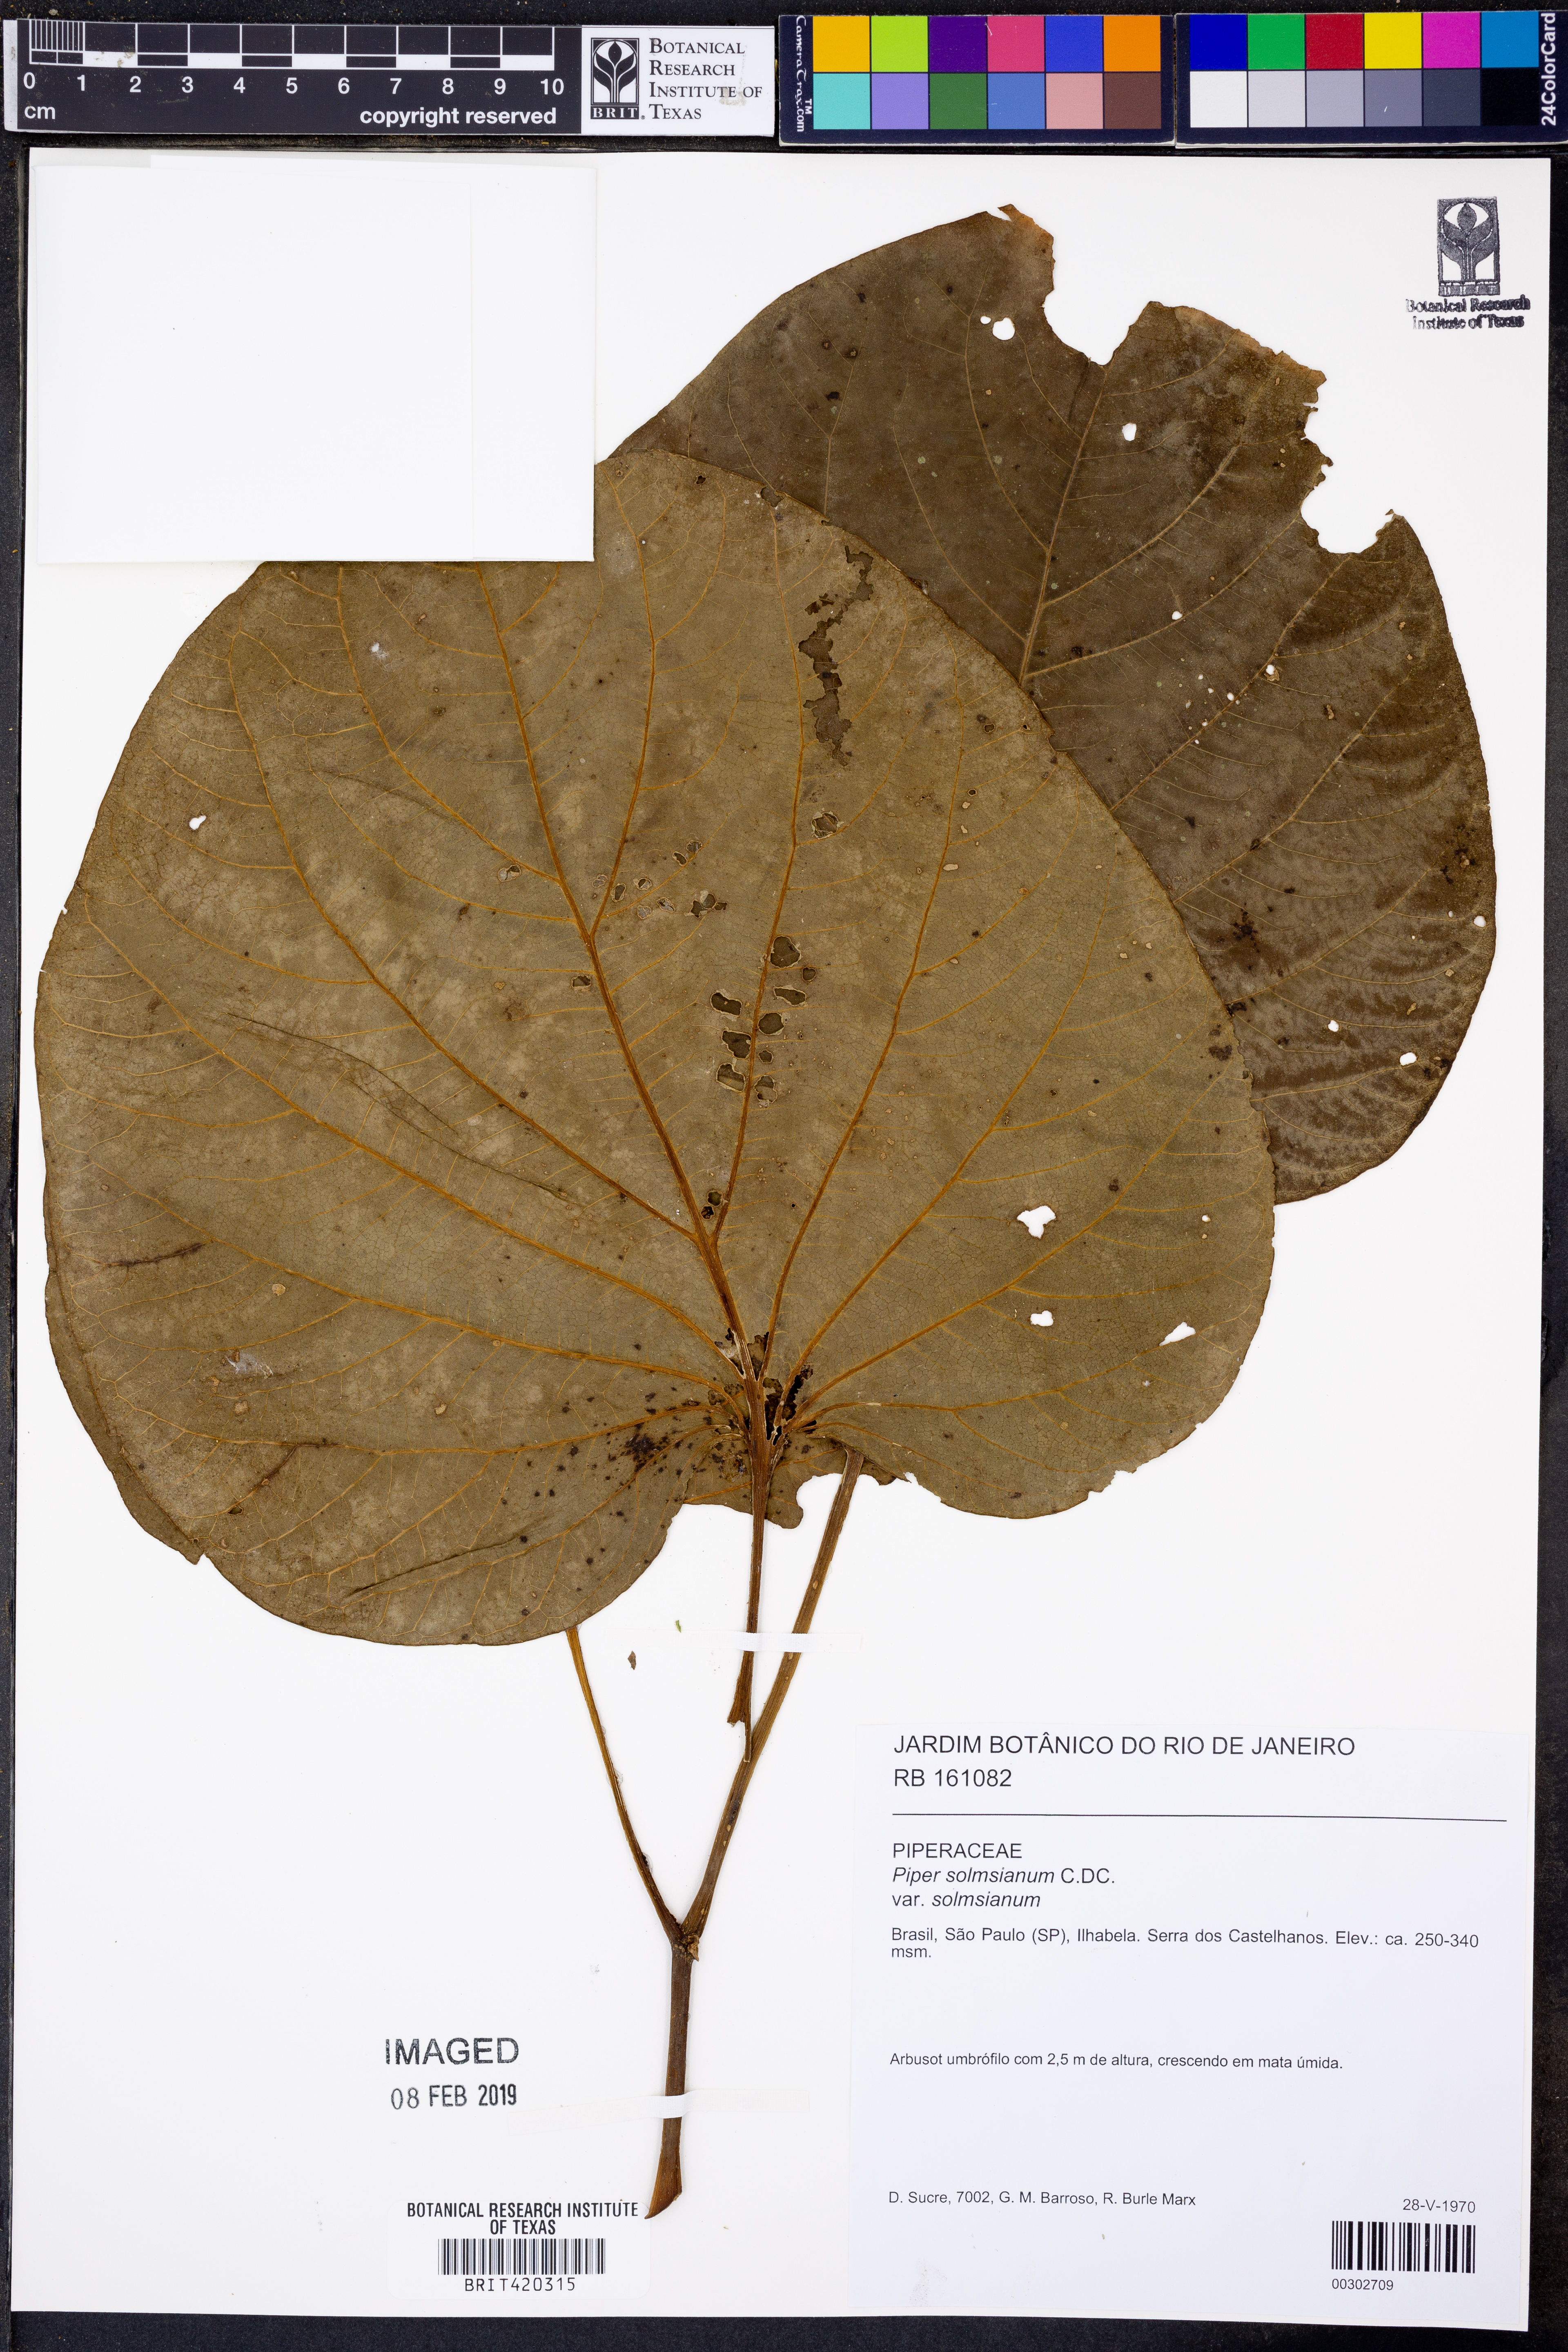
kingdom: Plantae
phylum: Tracheophyta
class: Magnoliopsida
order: Piperales
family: Piperaceae
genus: Piper
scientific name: Piper solmsianum
